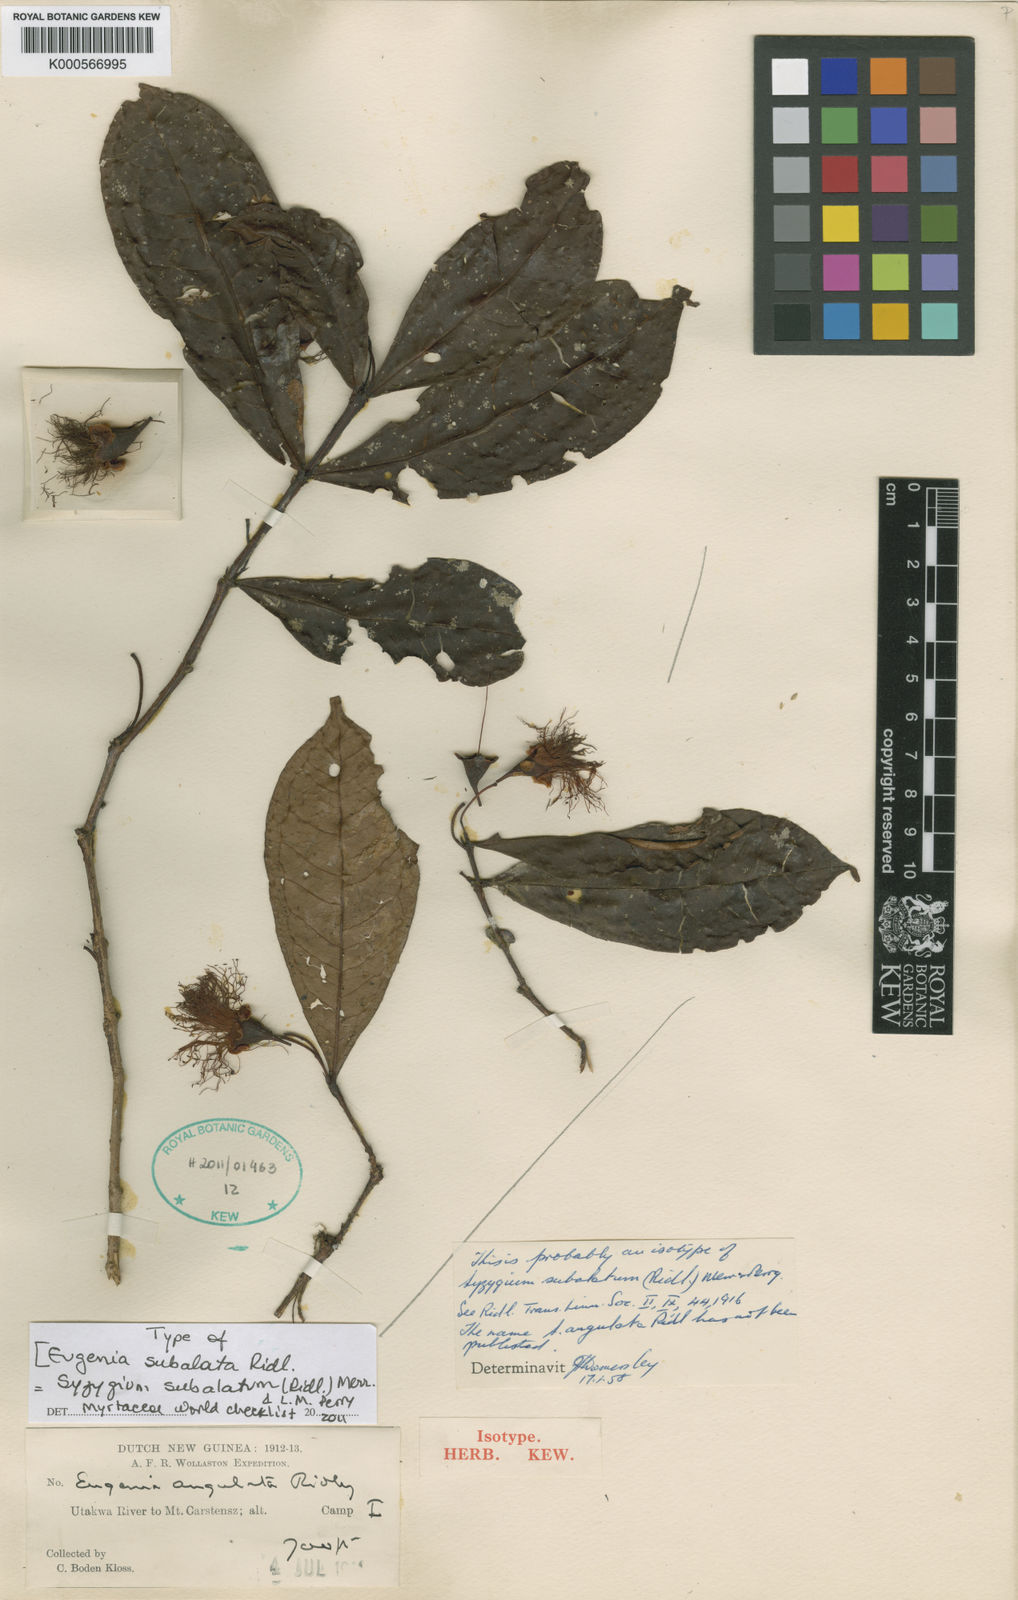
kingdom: Plantae
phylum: Tracheophyta
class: Magnoliopsida
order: Myrtales
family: Myrtaceae
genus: Syzygium
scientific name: Syzygium subalatum
